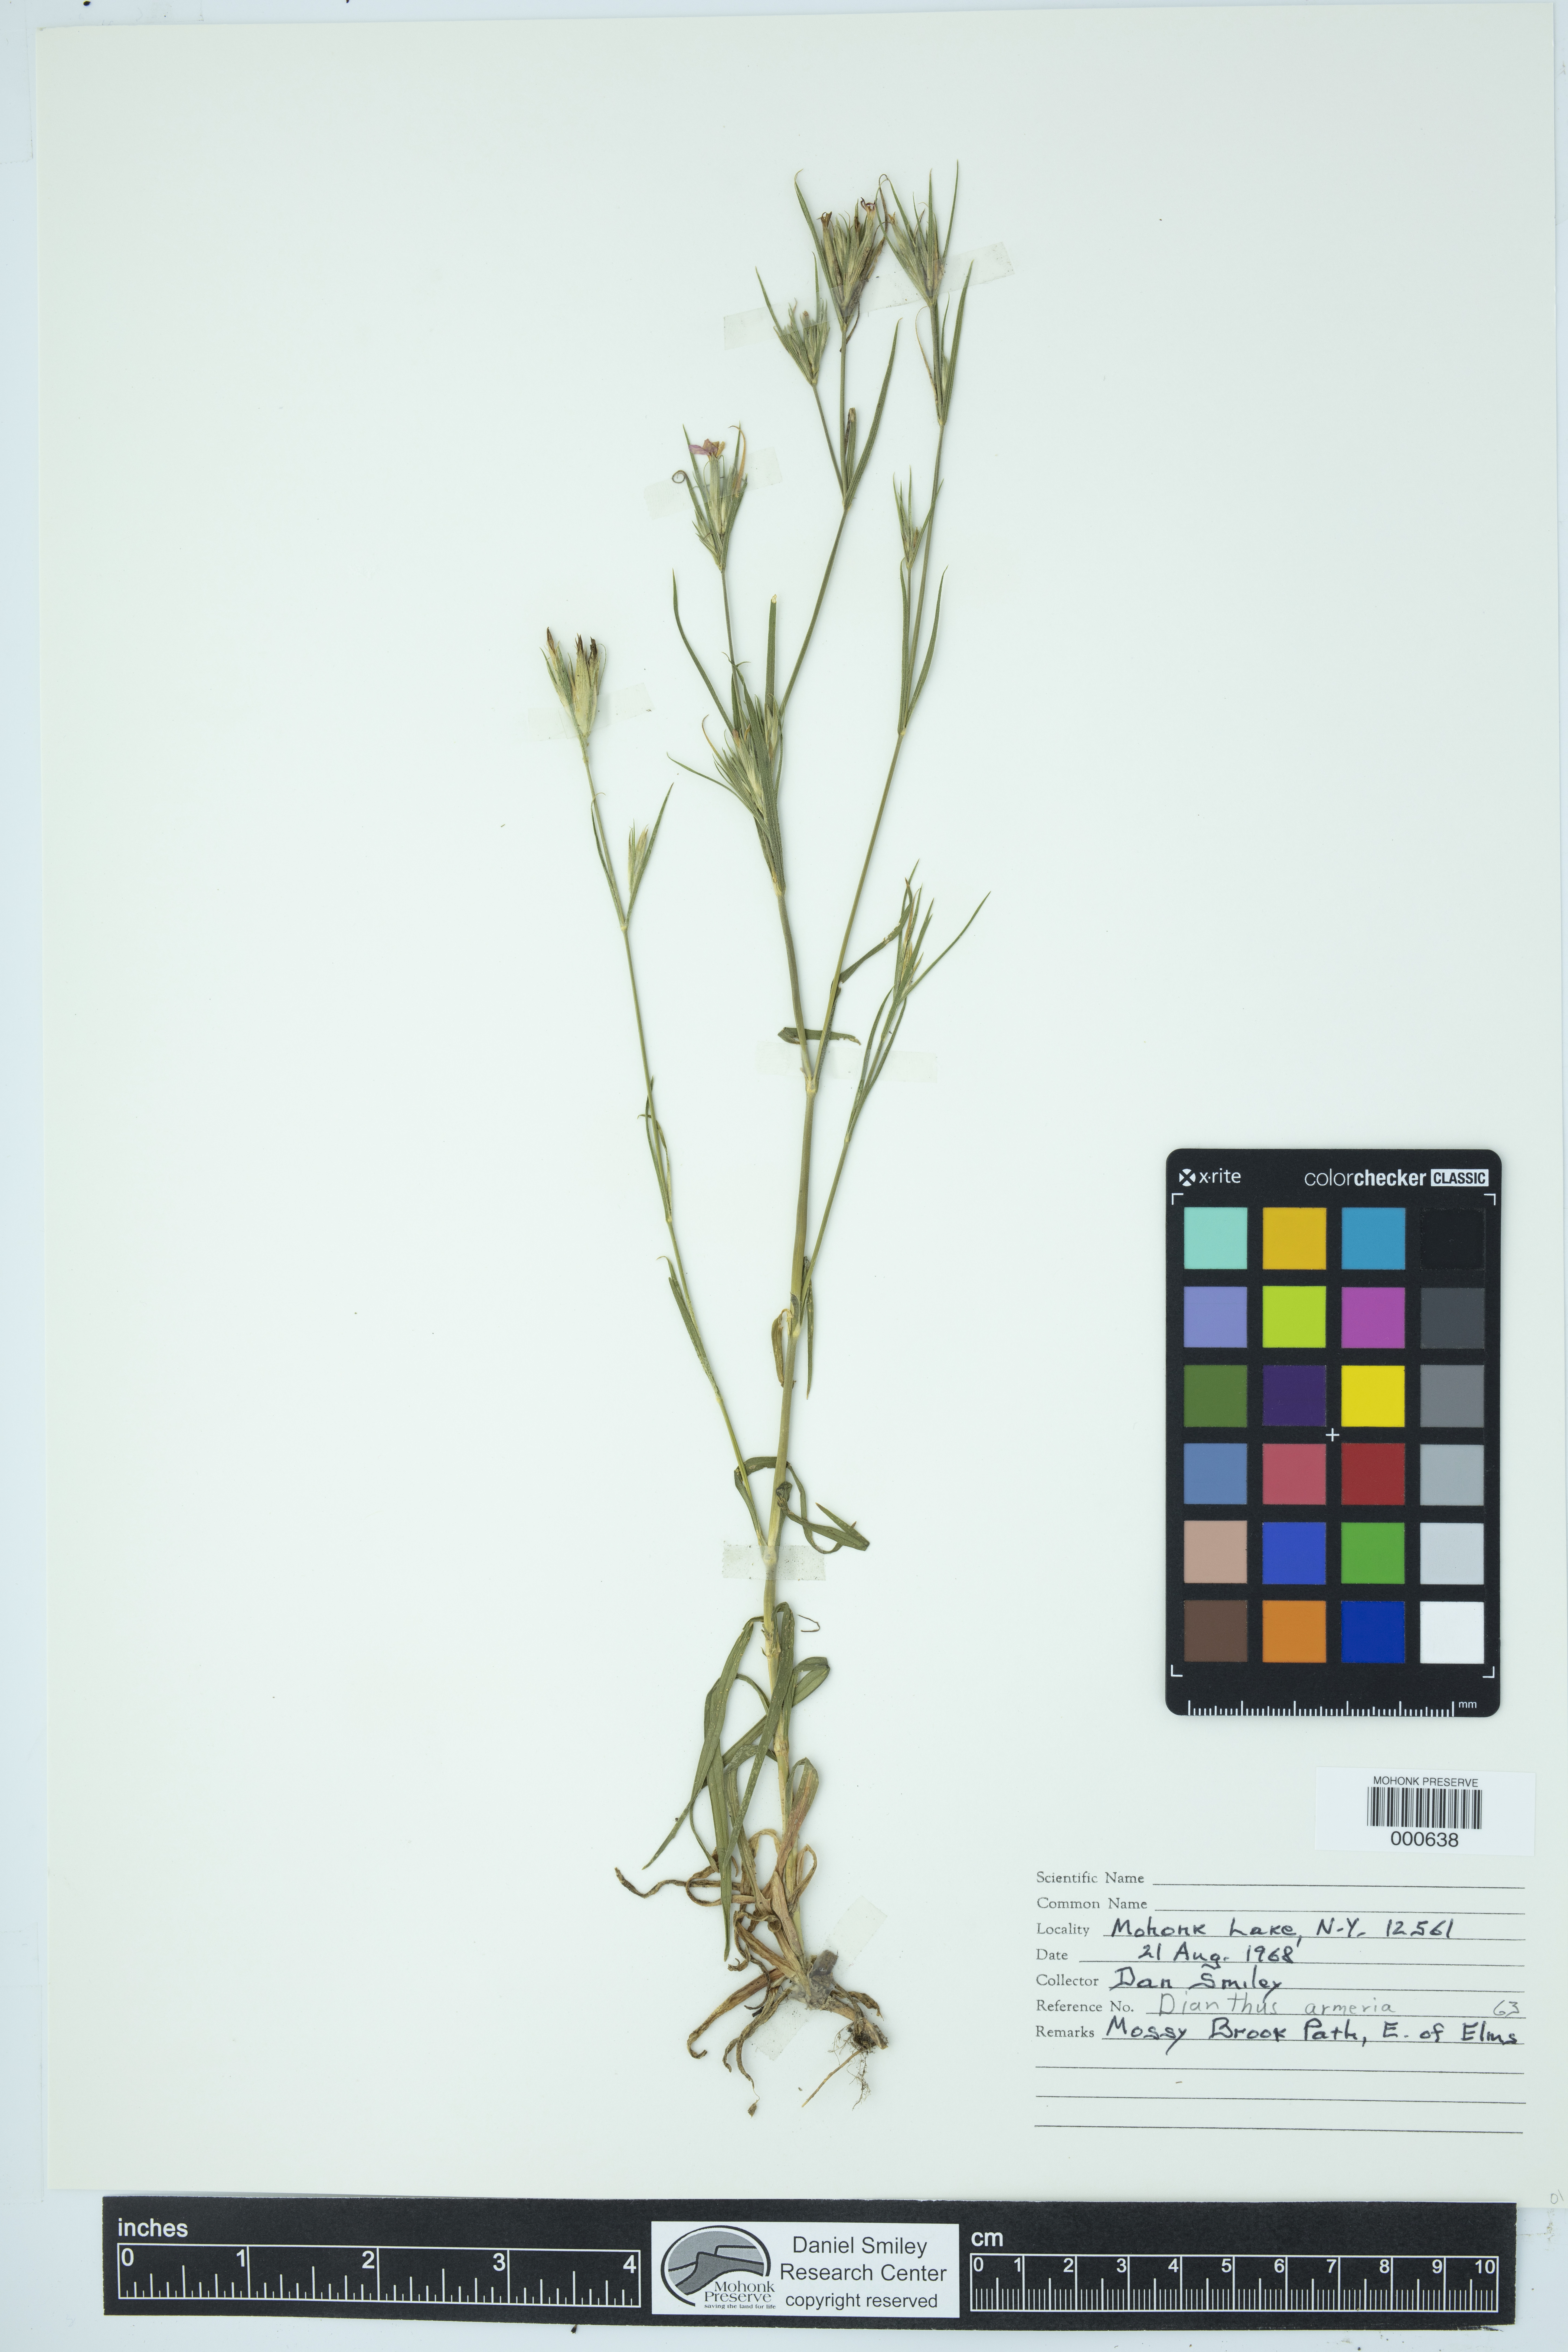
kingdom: Plantae
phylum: Tracheophyta
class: Magnoliopsida
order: Caryophyllales
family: Caryophyllaceae
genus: Dianthus
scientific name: Dianthus armeria
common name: Deptford pink
